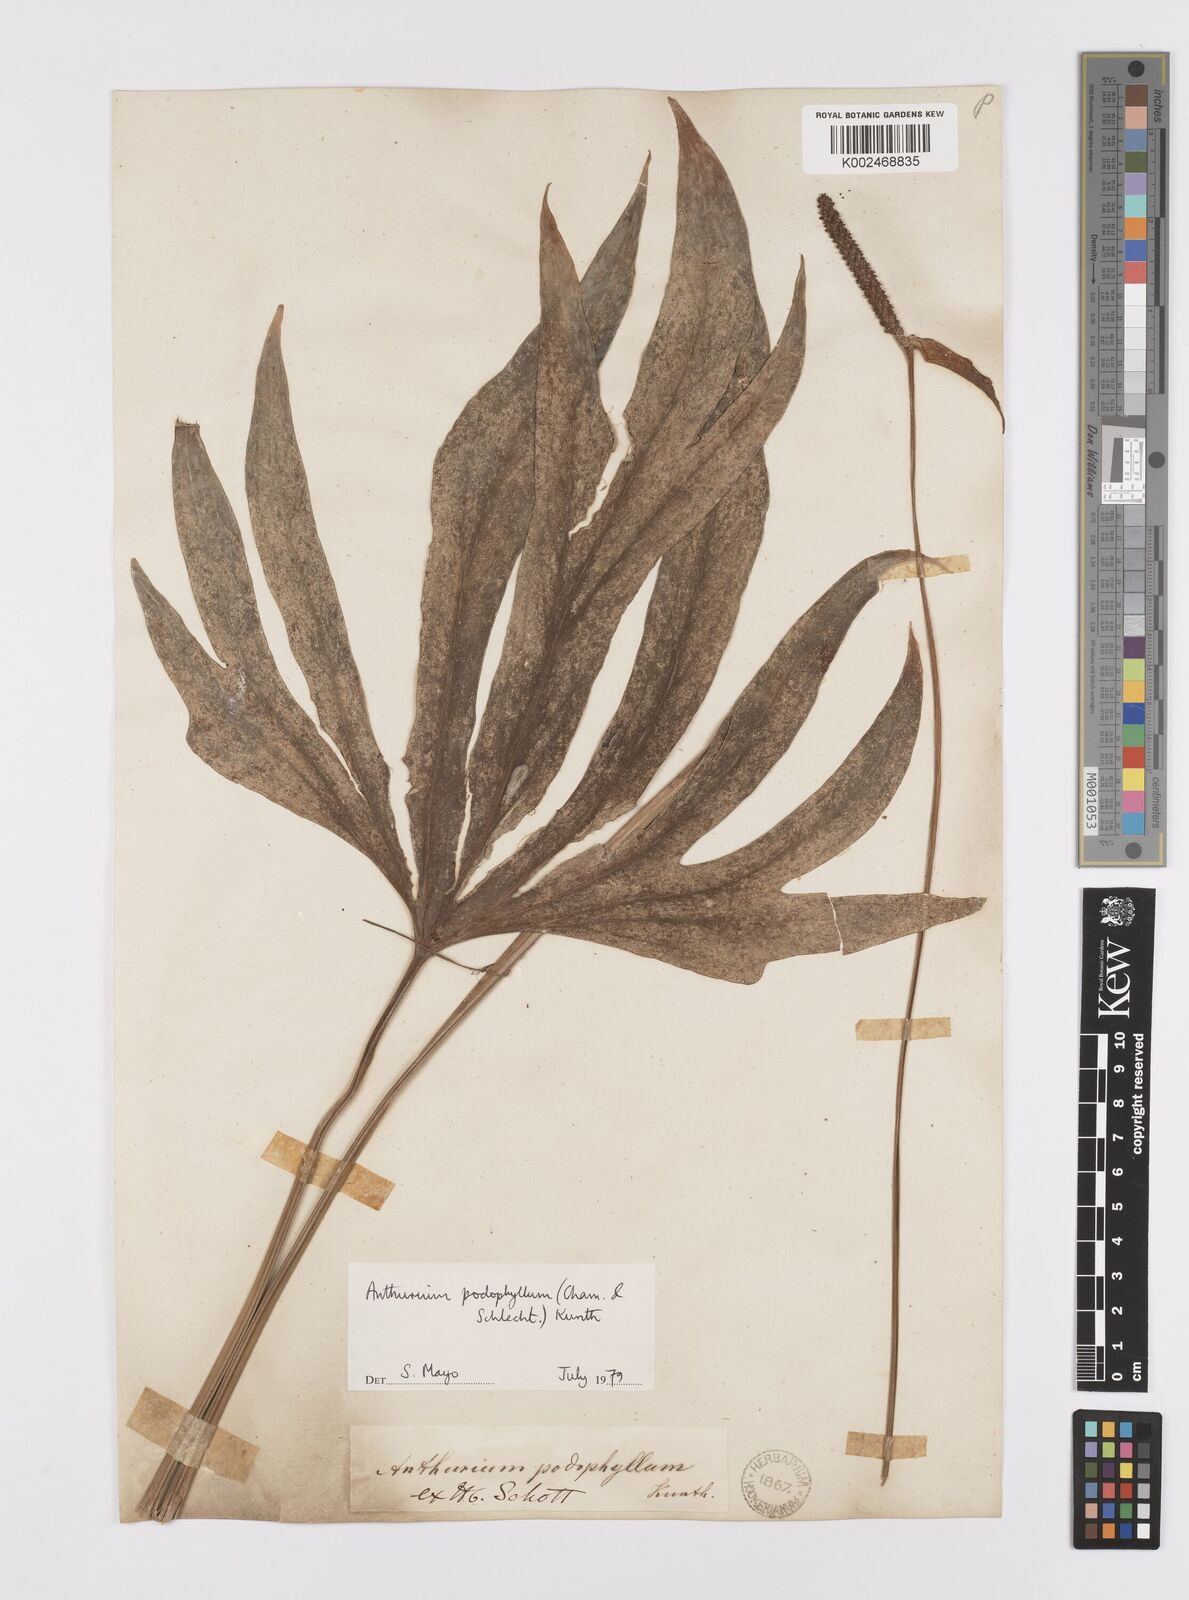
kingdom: Plantae
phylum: Tracheophyta
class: Liliopsida
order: Alismatales
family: Araceae
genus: Anthurium
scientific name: Anthurium podophyllum
